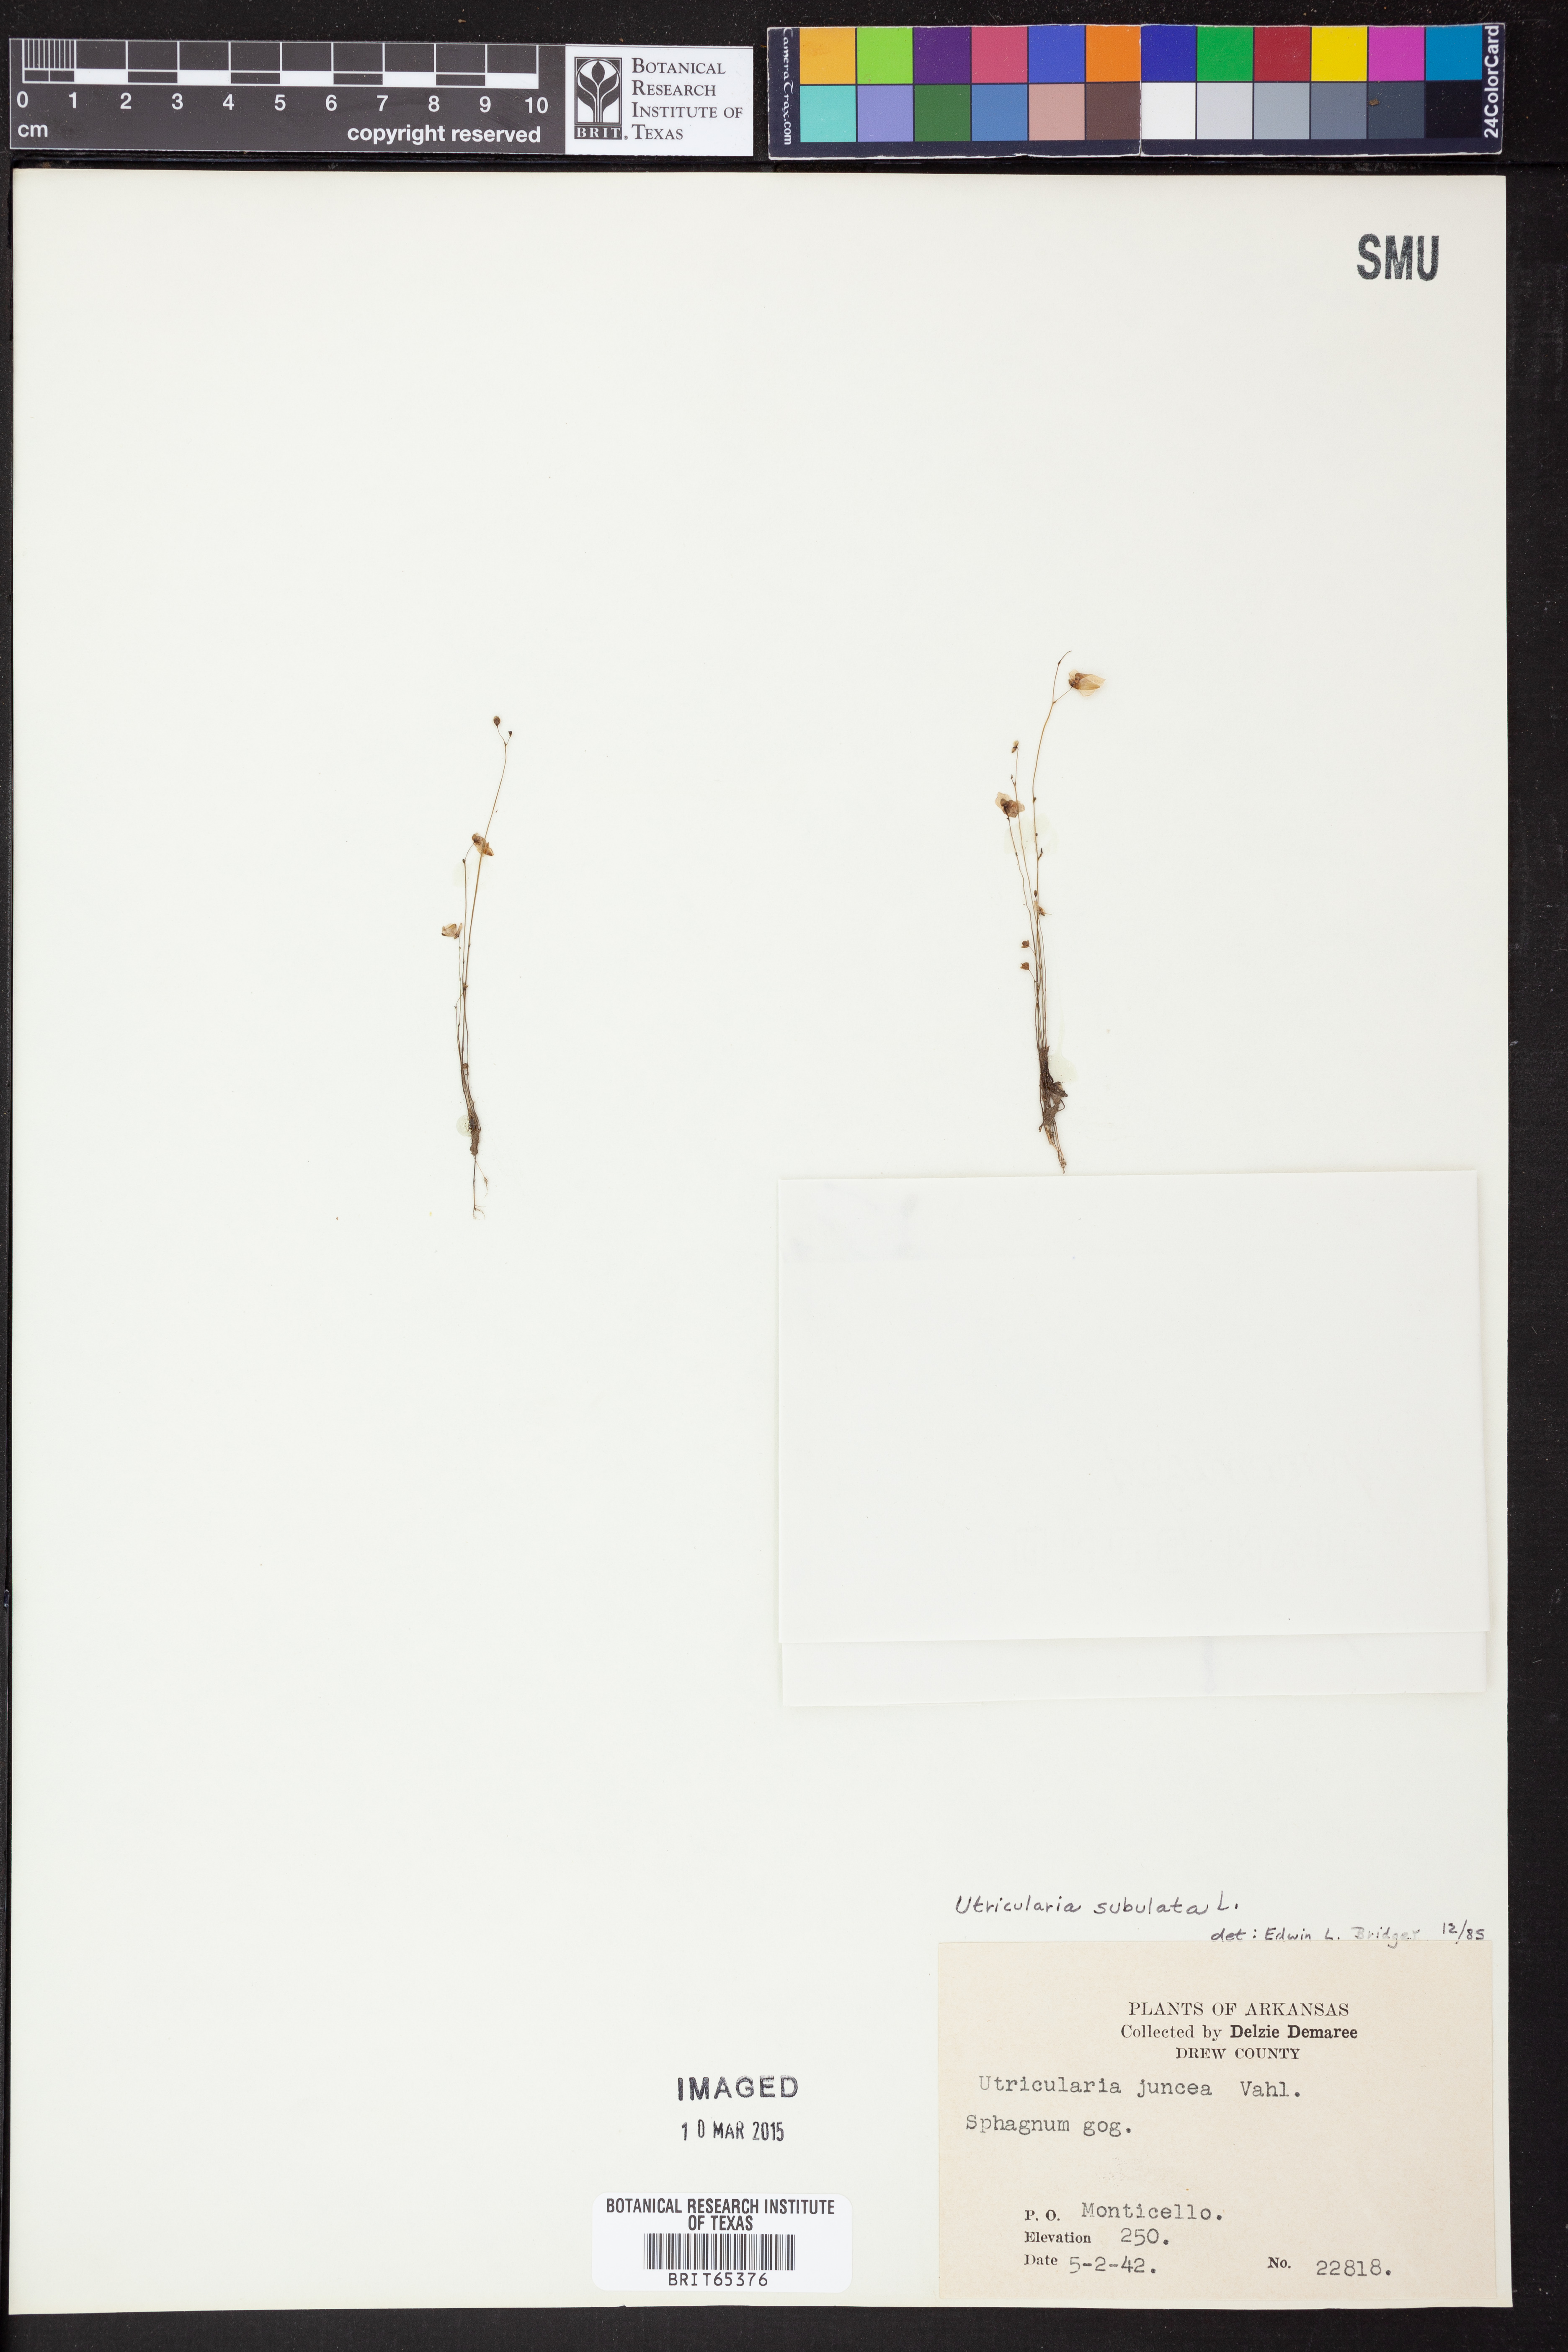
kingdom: Plantae
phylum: Tracheophyta
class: Magnoliopsida
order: Lamiales
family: Lentibulariaceae
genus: Utricularia
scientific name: Utricularia subulata
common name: Tiny bladderwort
